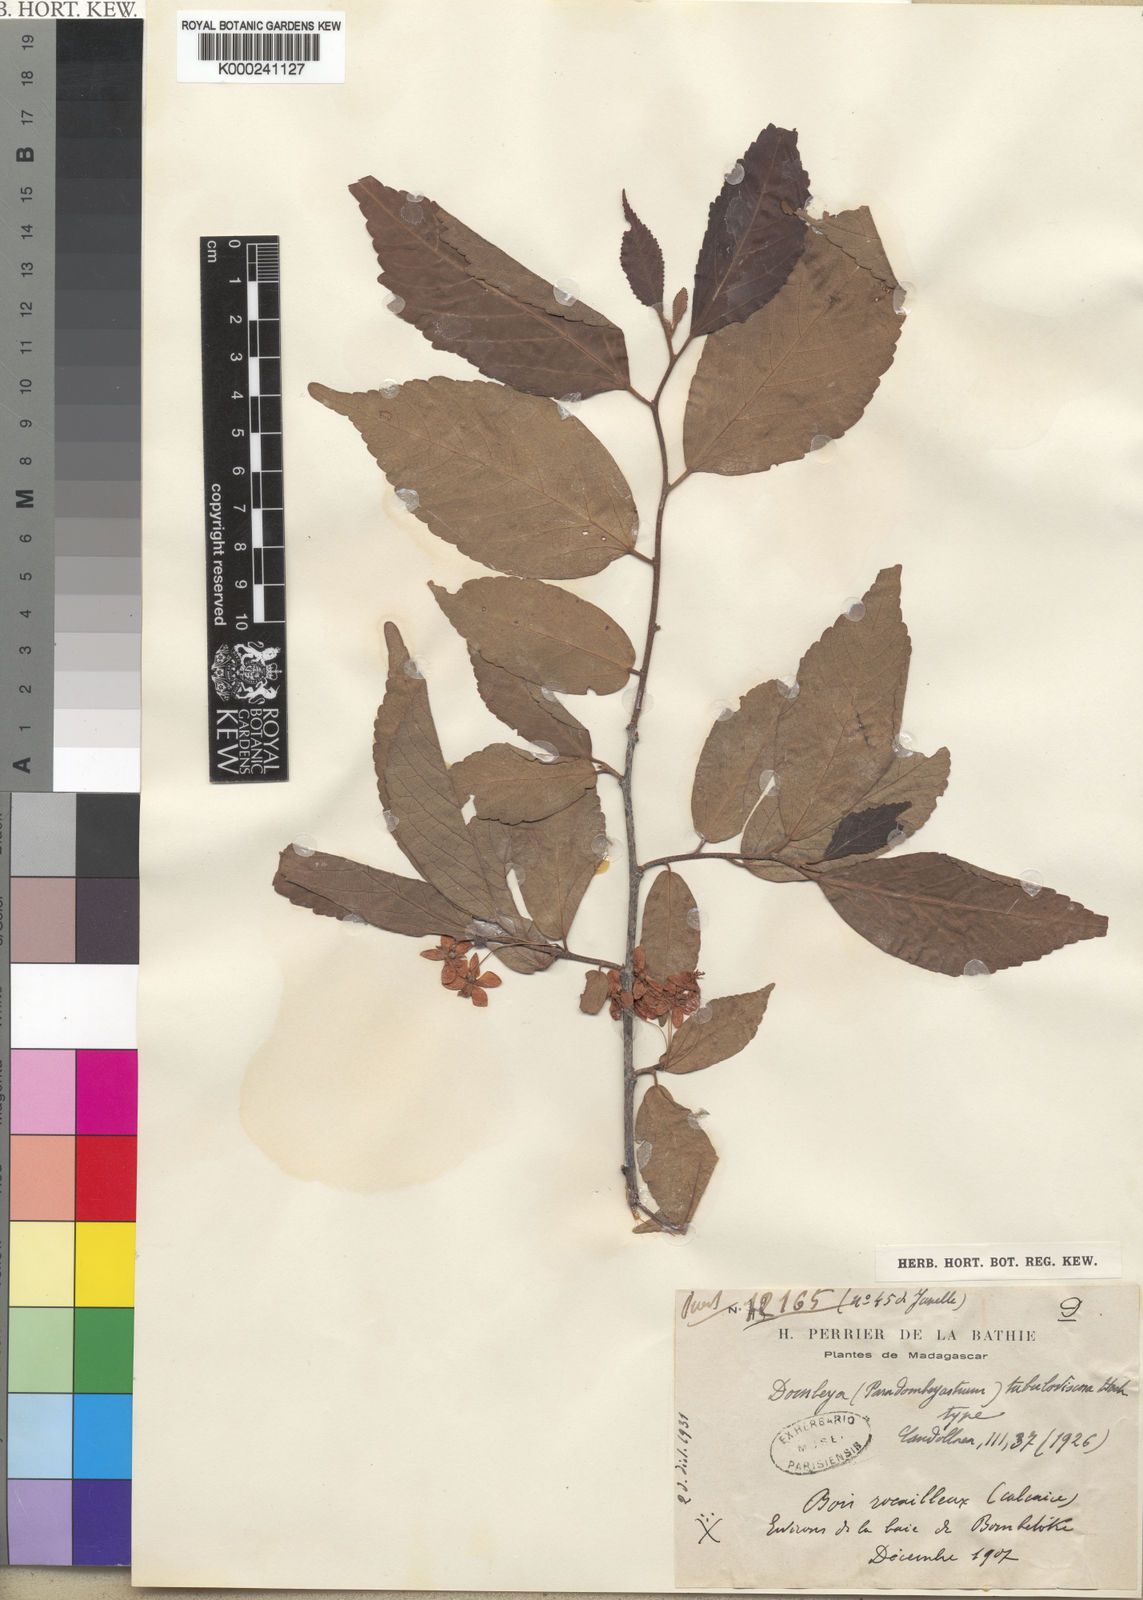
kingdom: Plantae
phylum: Tracheophyta
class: Magnoliopsida
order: Malvales
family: Malvaceae
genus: Dombeya
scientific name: Dombeya tubulosoviscosa
